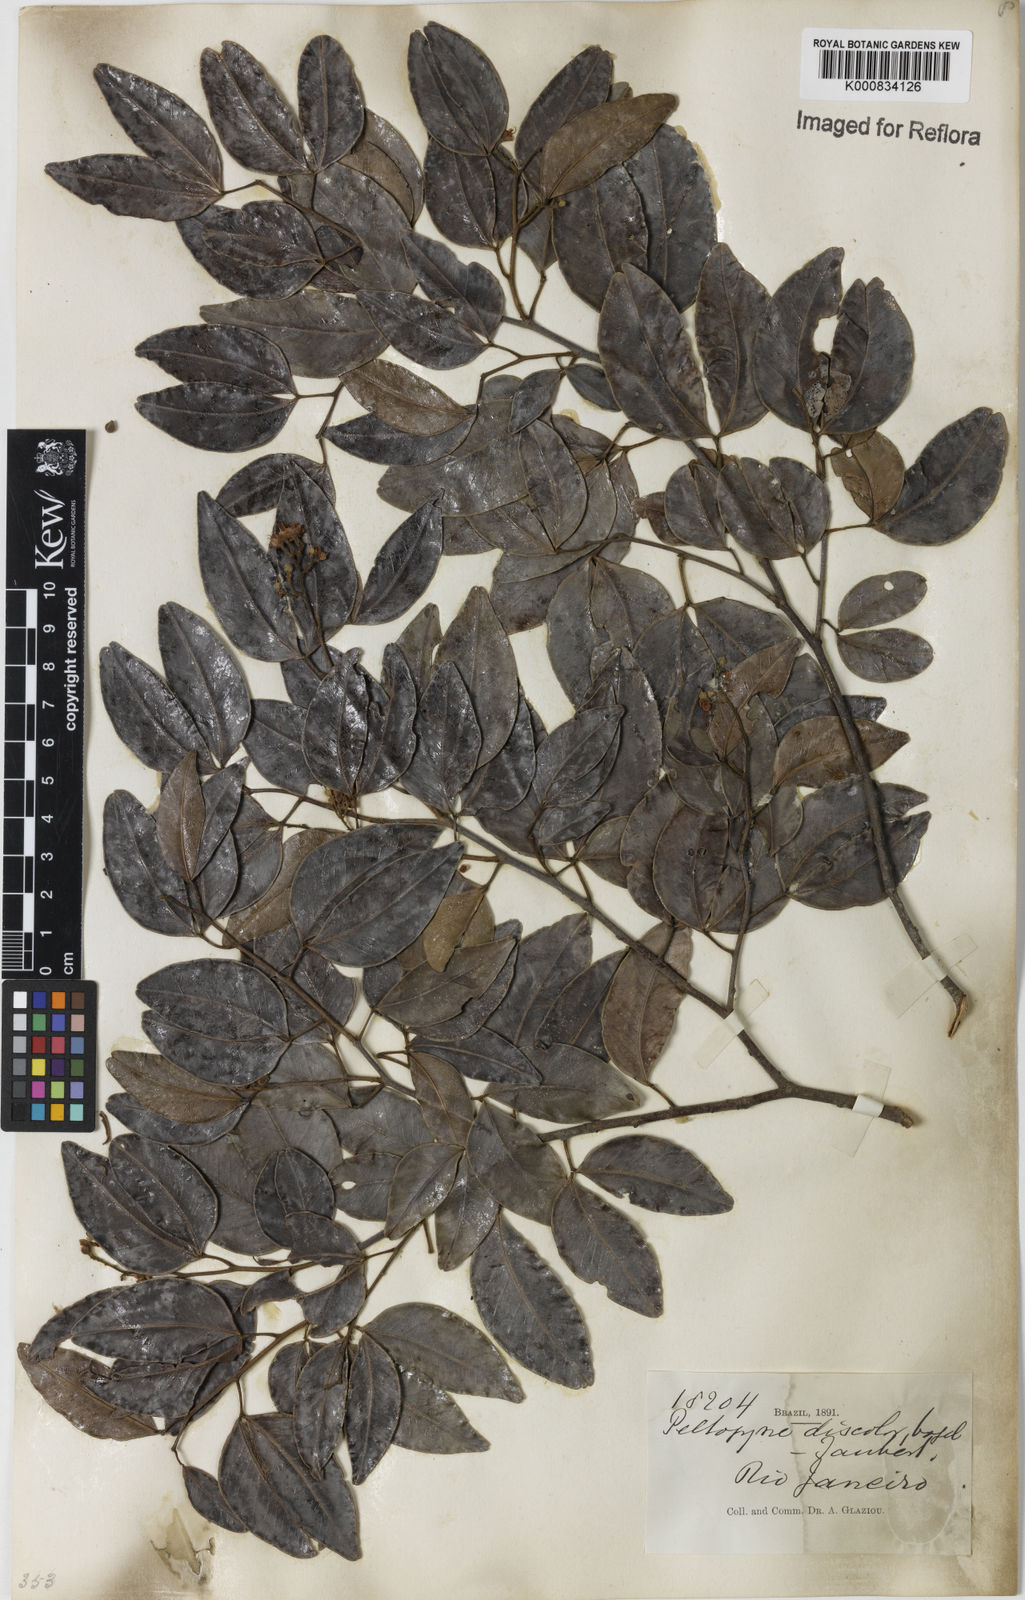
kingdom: Plantae
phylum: Tracheophyta
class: Magnoliopsida
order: Fabales
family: Fabaceae
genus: Peltogyne
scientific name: Peltogyne discolor
